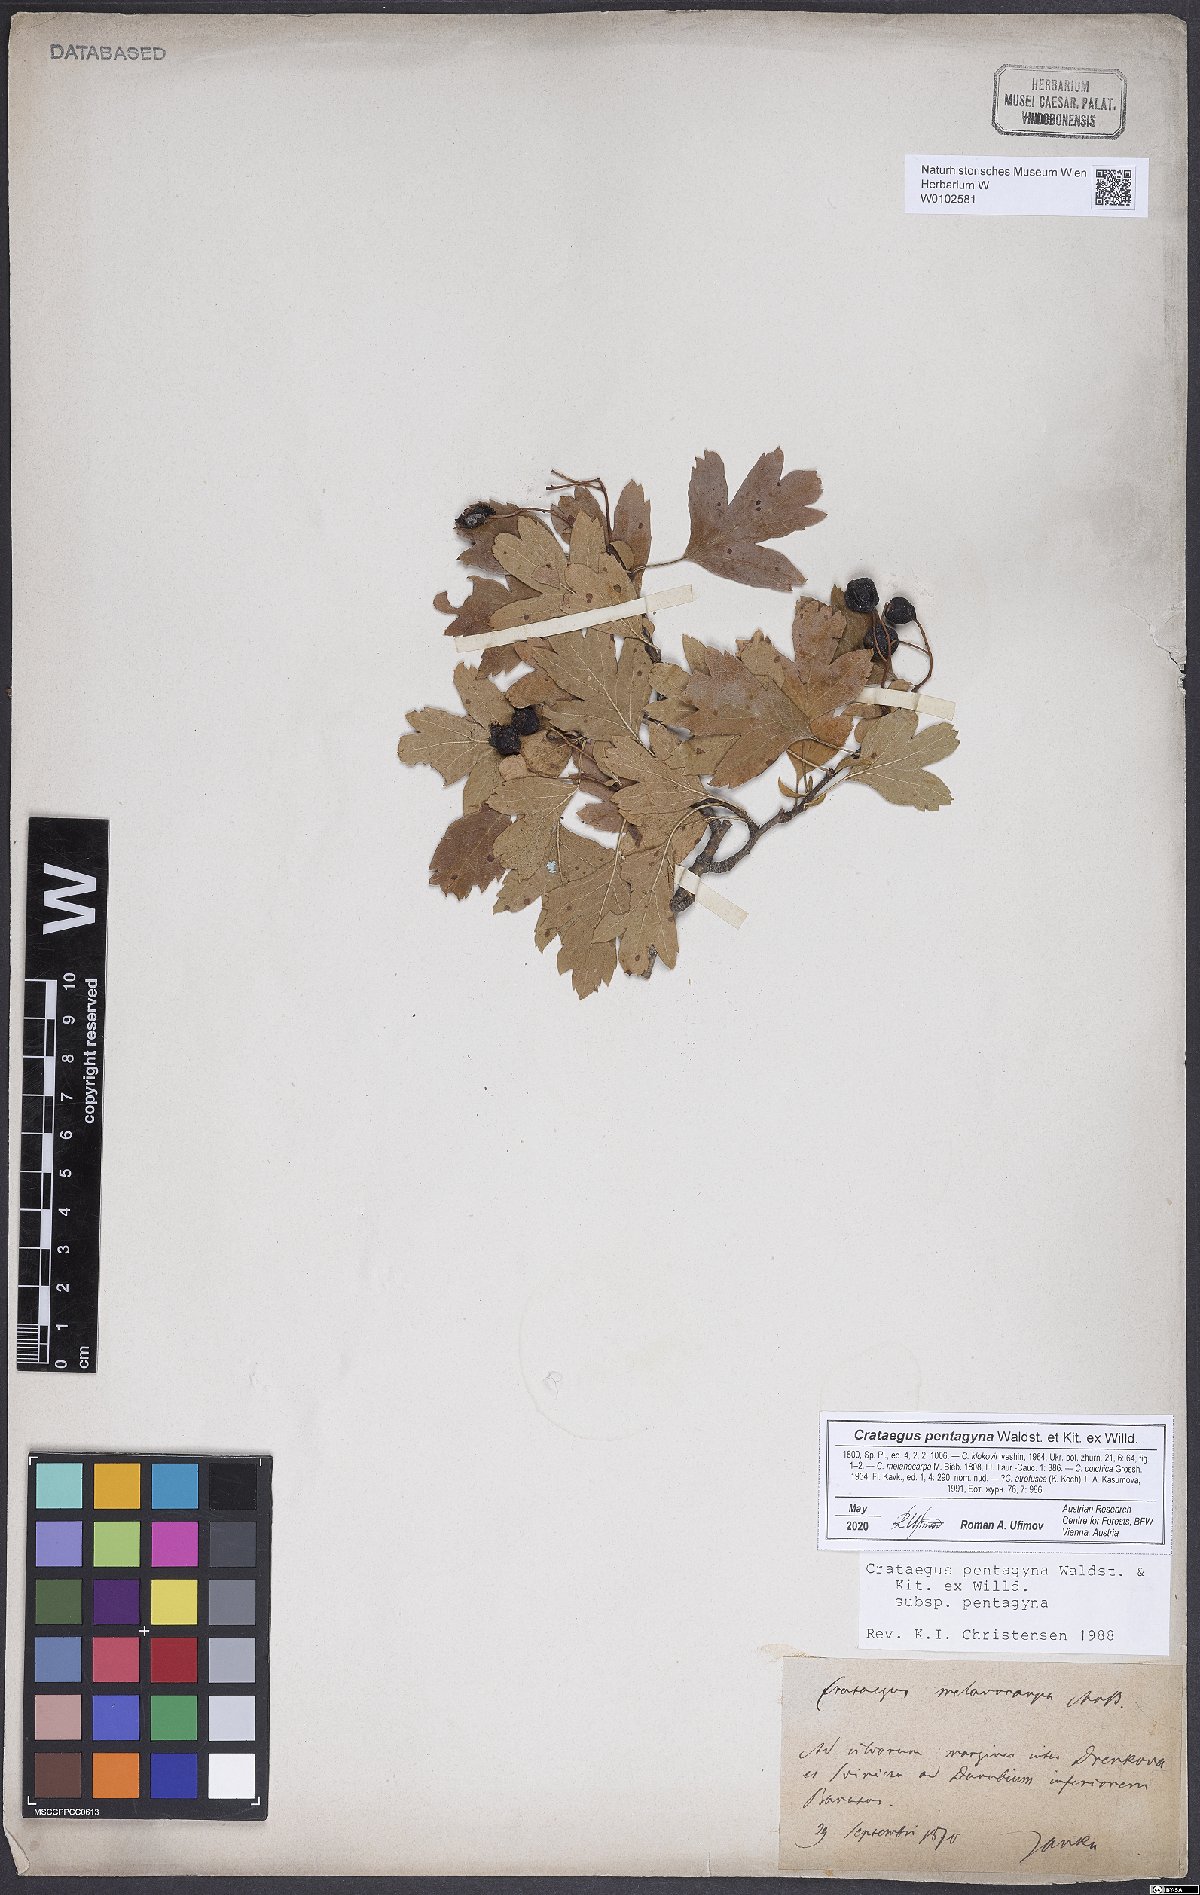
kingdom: Plantae
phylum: Tracheophyta
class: Magnoliopsida
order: Rosales
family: Rosaceae
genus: Crataegus
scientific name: Crataegus pentagyna
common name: Small-flowered black hawthorn
